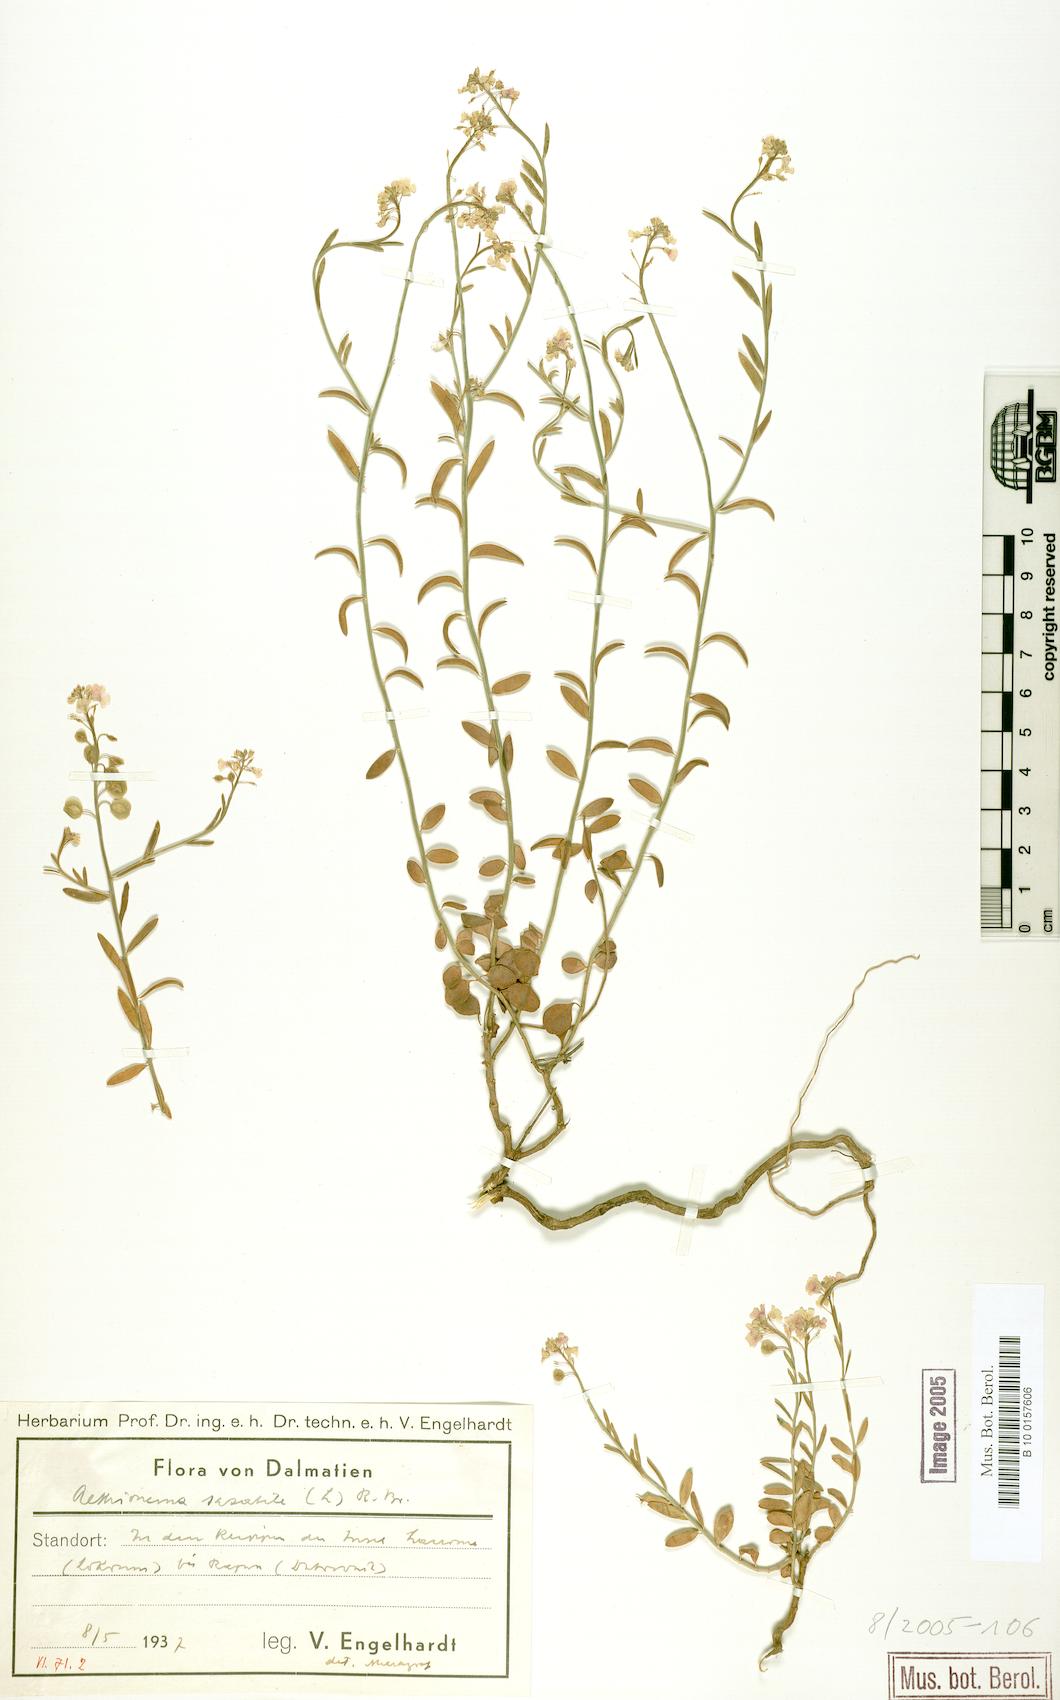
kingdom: Plantae
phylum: Tracheophyta
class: Magnoliopsida
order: Brassicales
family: Brassicaceae
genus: Aethionema
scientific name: Aethionema saxatile
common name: Burnt candytuft
